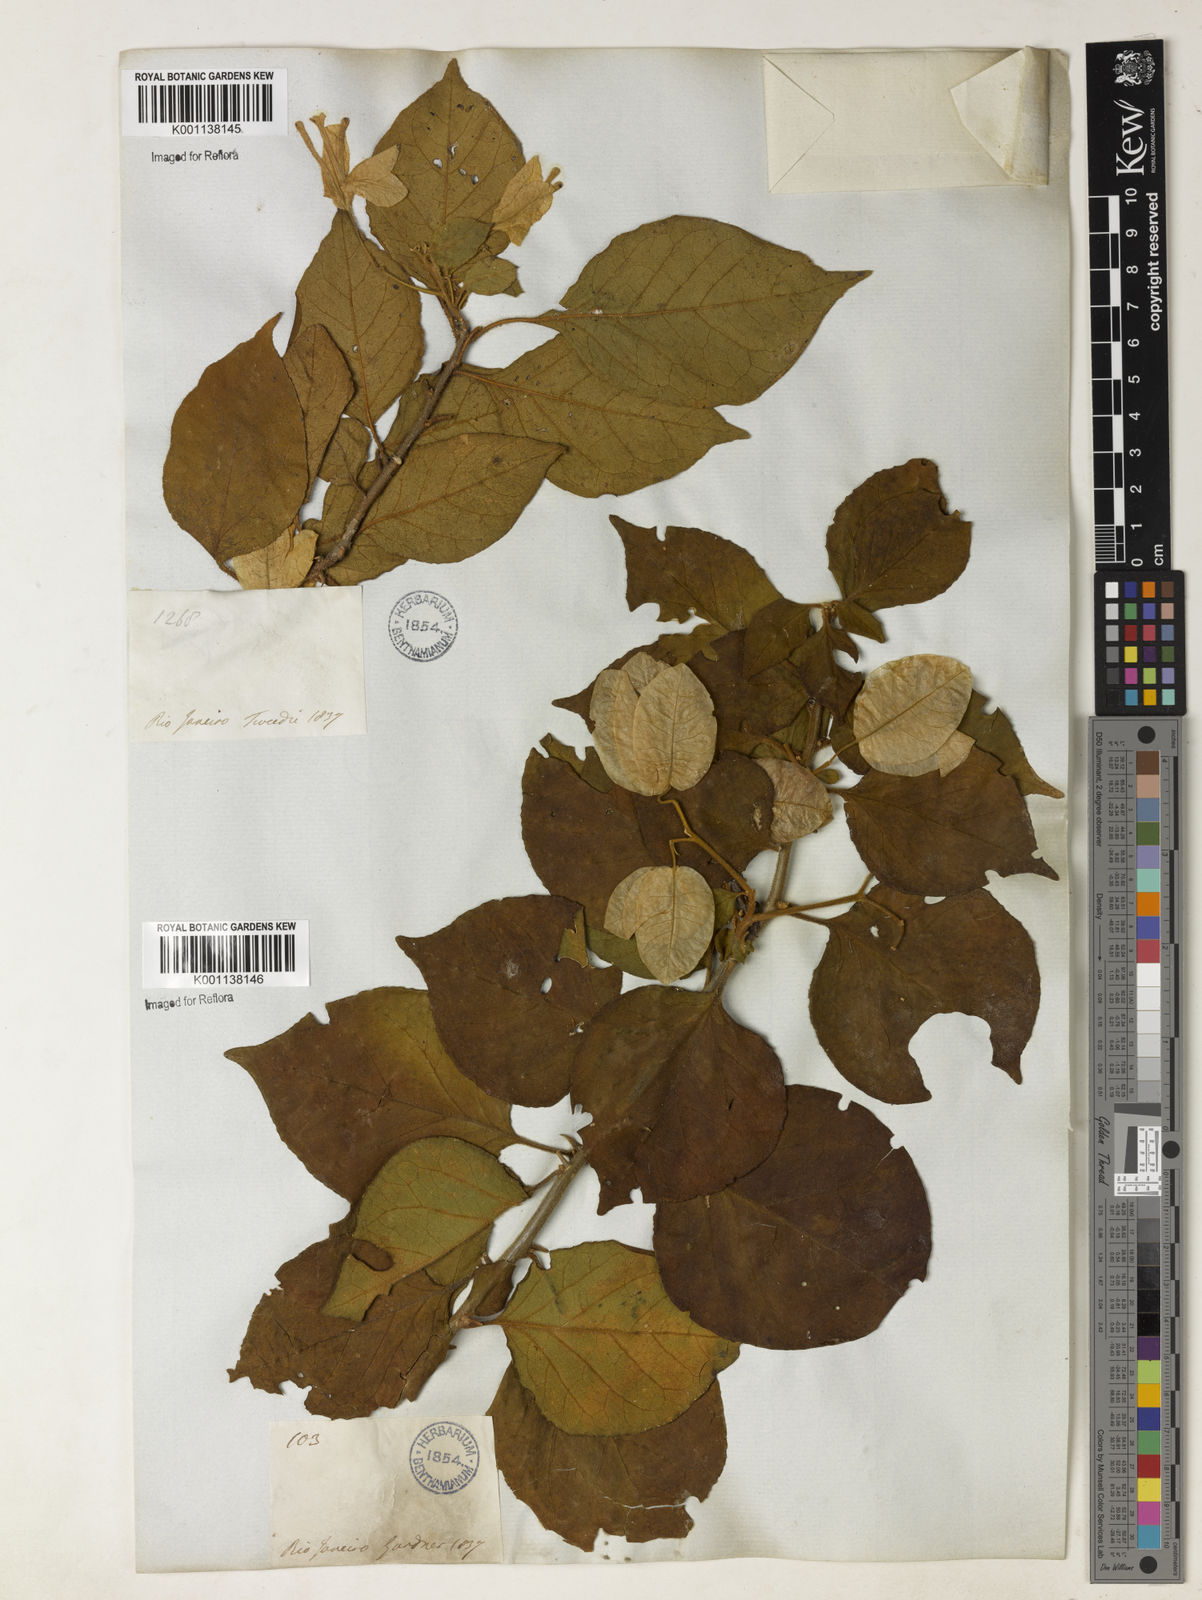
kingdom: Plantae
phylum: Tracheophyta
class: Magnoliopsida
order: Caryophyllales
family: Nyctaginaceae
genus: Bougainvillea
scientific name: Bougainvillea spectabilis
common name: Great bougainvillea
